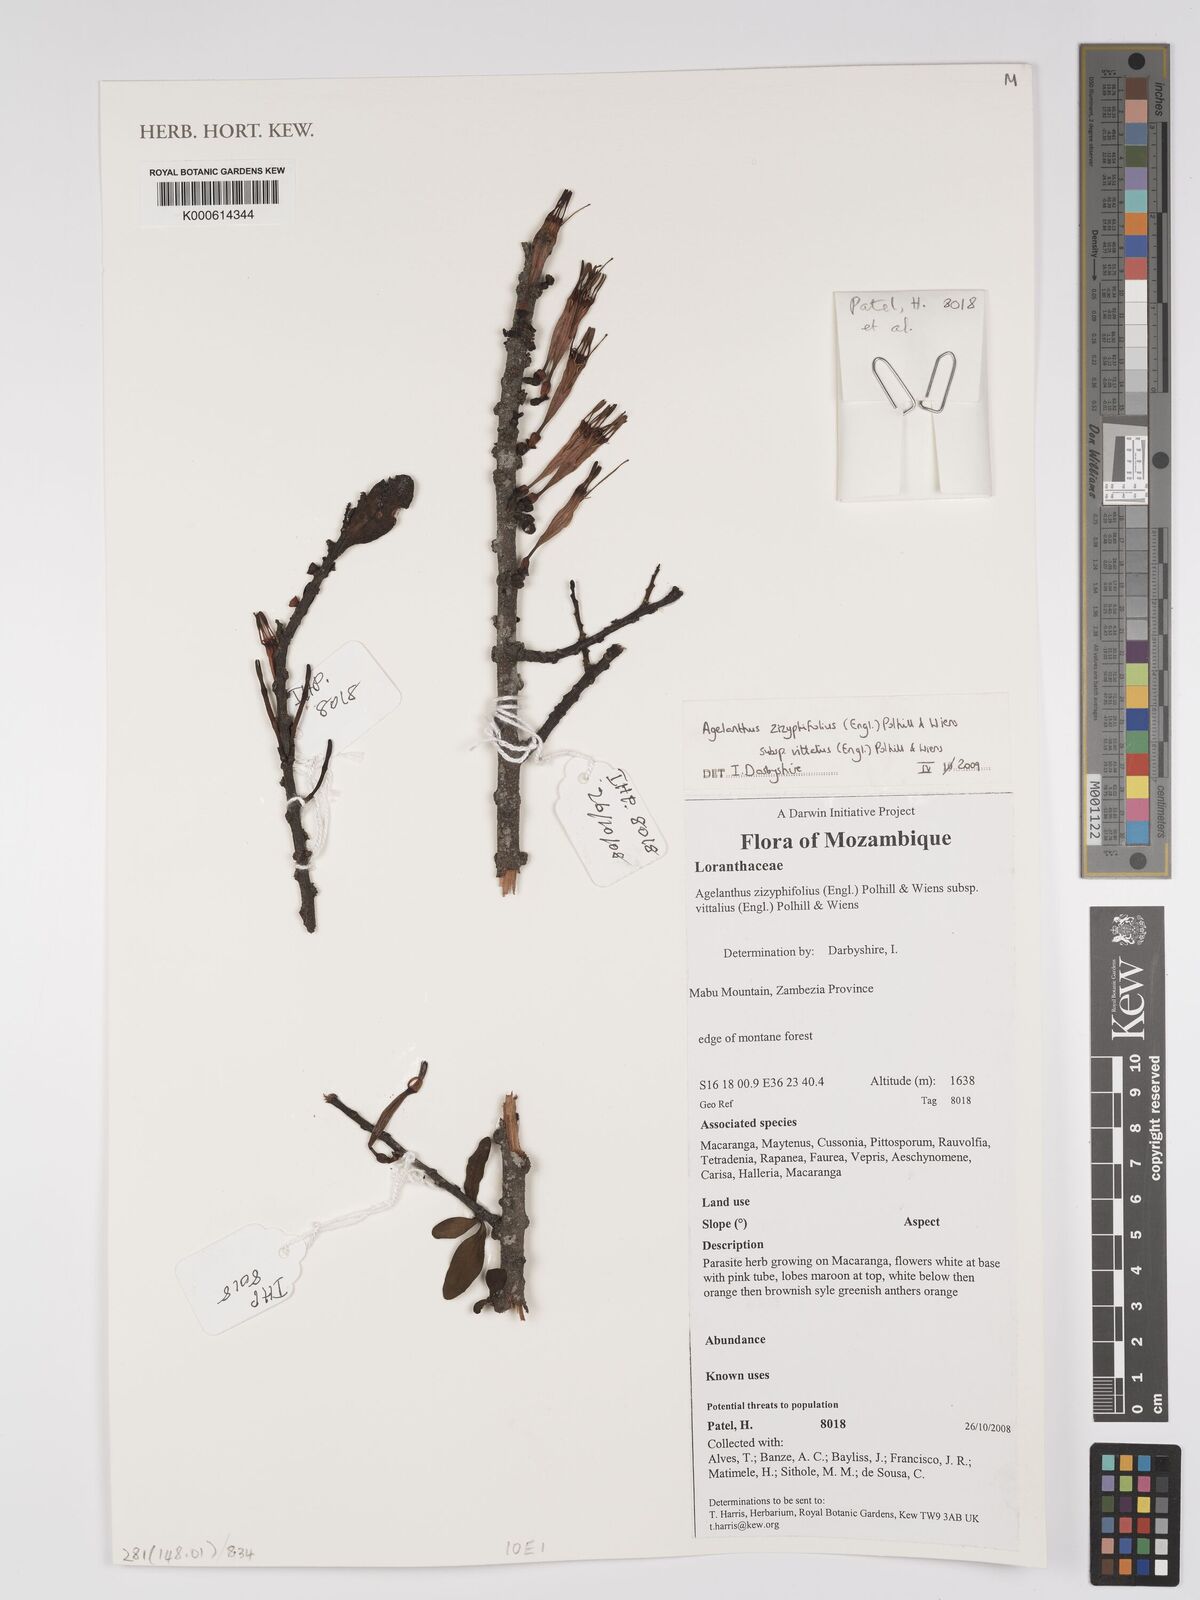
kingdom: Plantae
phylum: Tracheophyta
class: Magnoliopsida
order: Santalales
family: Loranthaceae
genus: Agelanthus
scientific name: Agelanthus zizyphifolius
